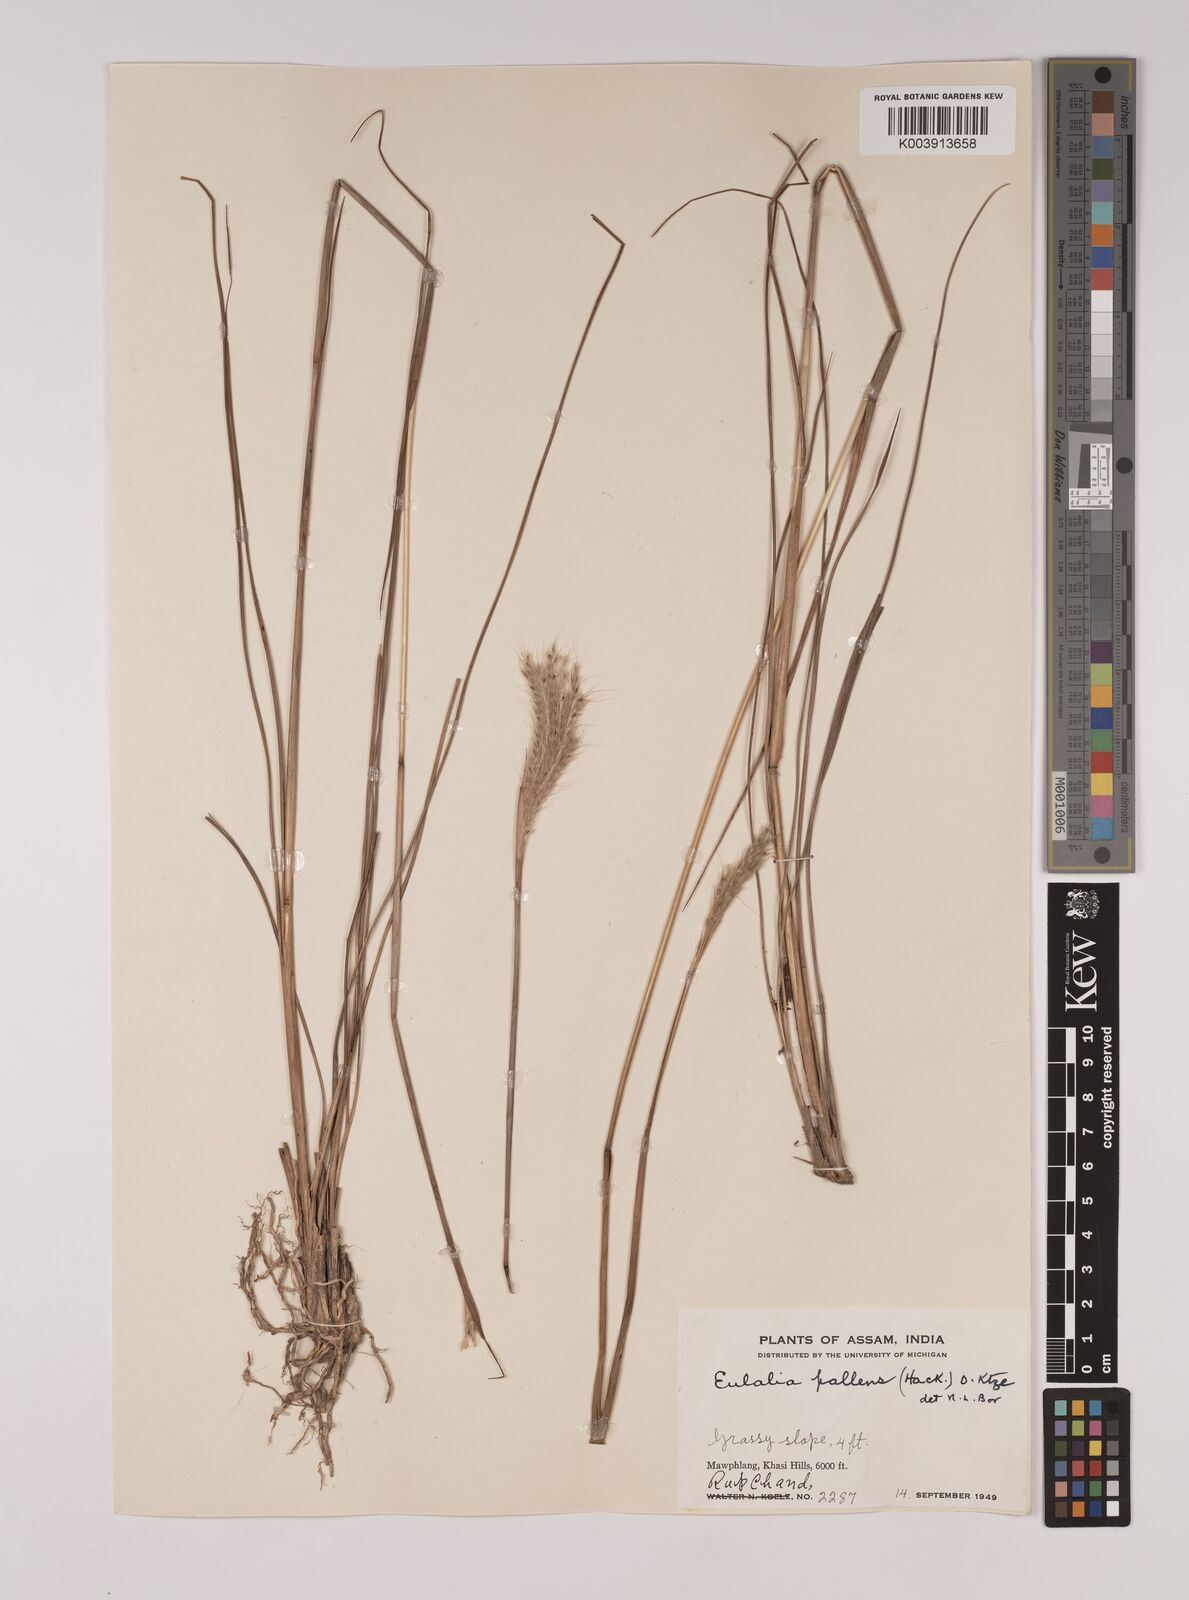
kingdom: Plantae
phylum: Tracheophyta
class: Liliopsida
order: Poales
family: Poaceae
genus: Eulalia
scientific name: Eulalia pallens
